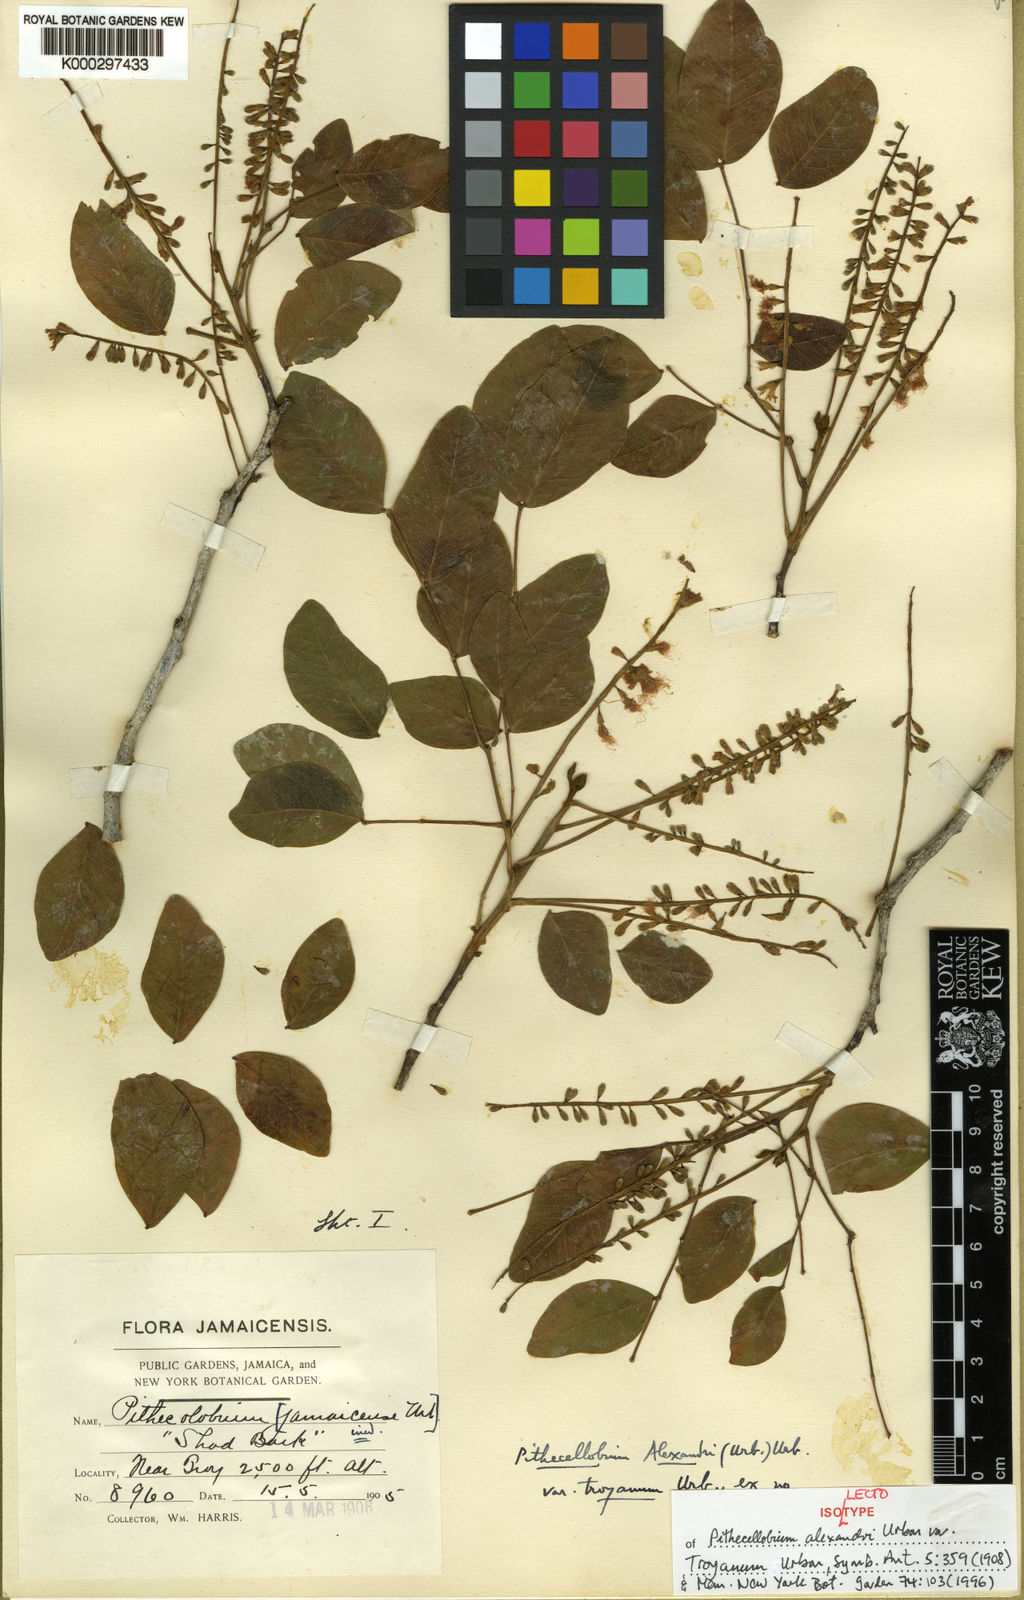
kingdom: Plantae
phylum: Tracheophyta
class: Magnoliopsida
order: Fabales
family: Fabaceae
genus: Jupunba
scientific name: Jupunba alexandri
